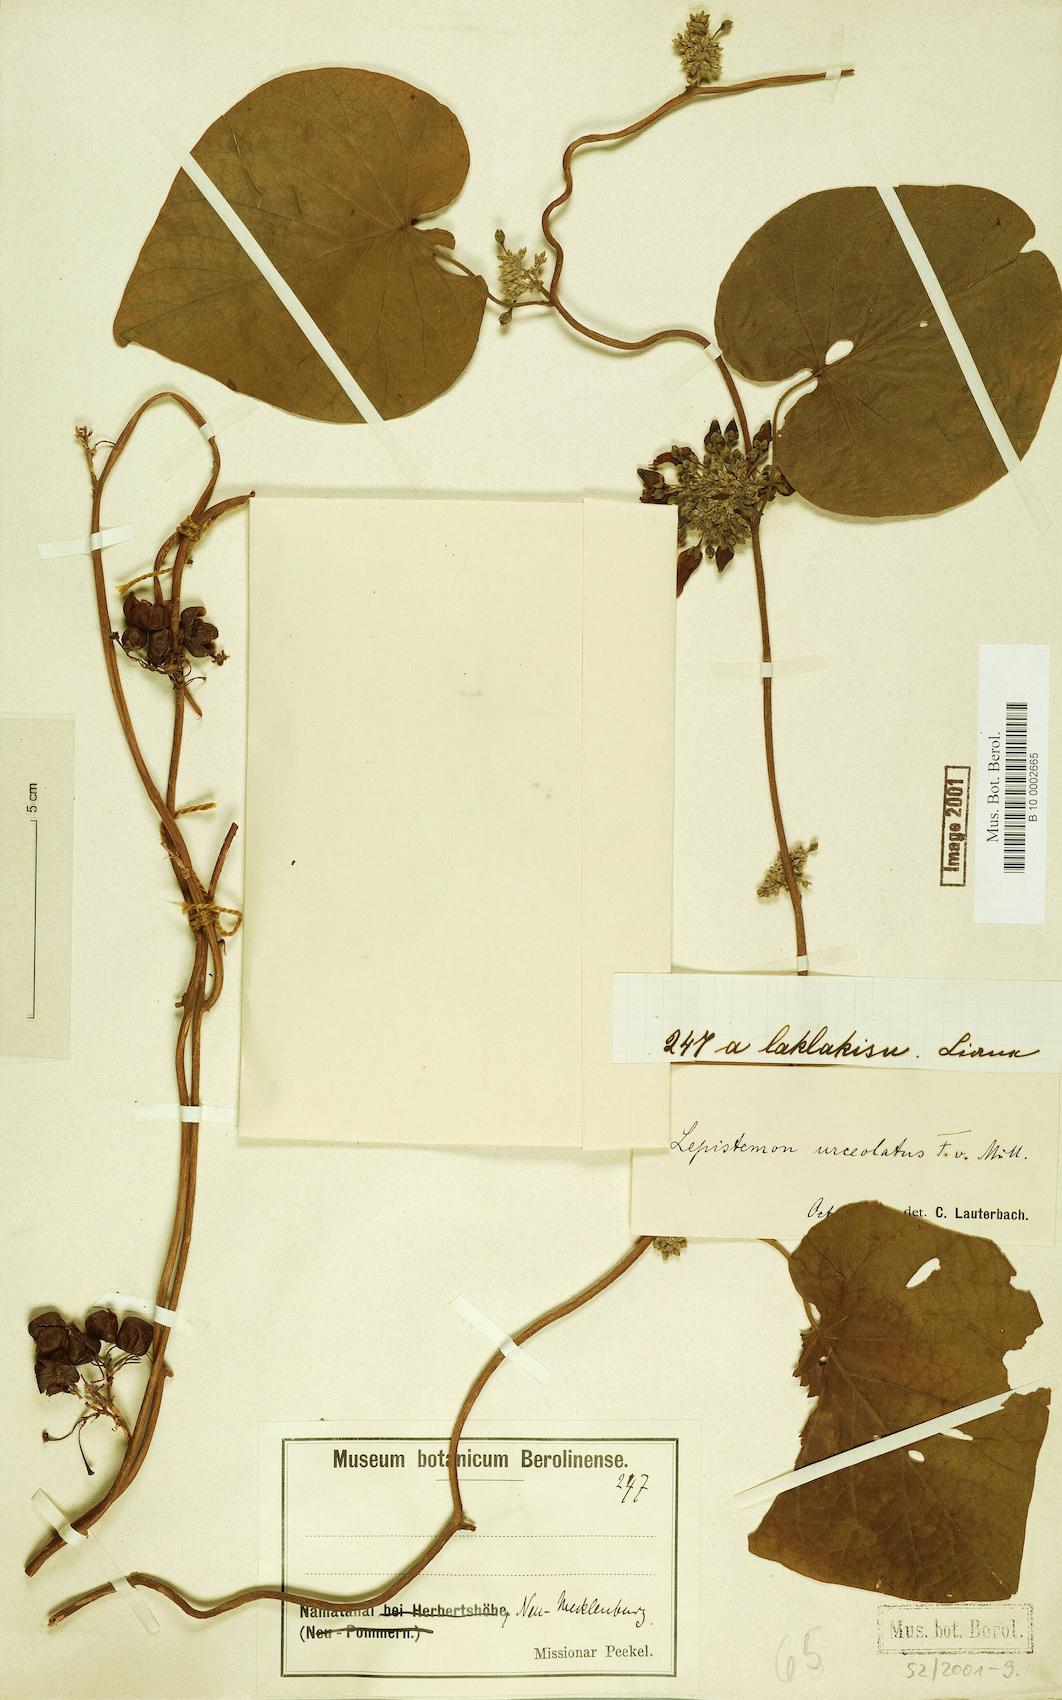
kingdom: Plantae
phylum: Tracheophyta
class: Magnoliopsida
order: Solanales
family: Convolvulaceae
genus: Lepistemon
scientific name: Lepistemon urceolatus
